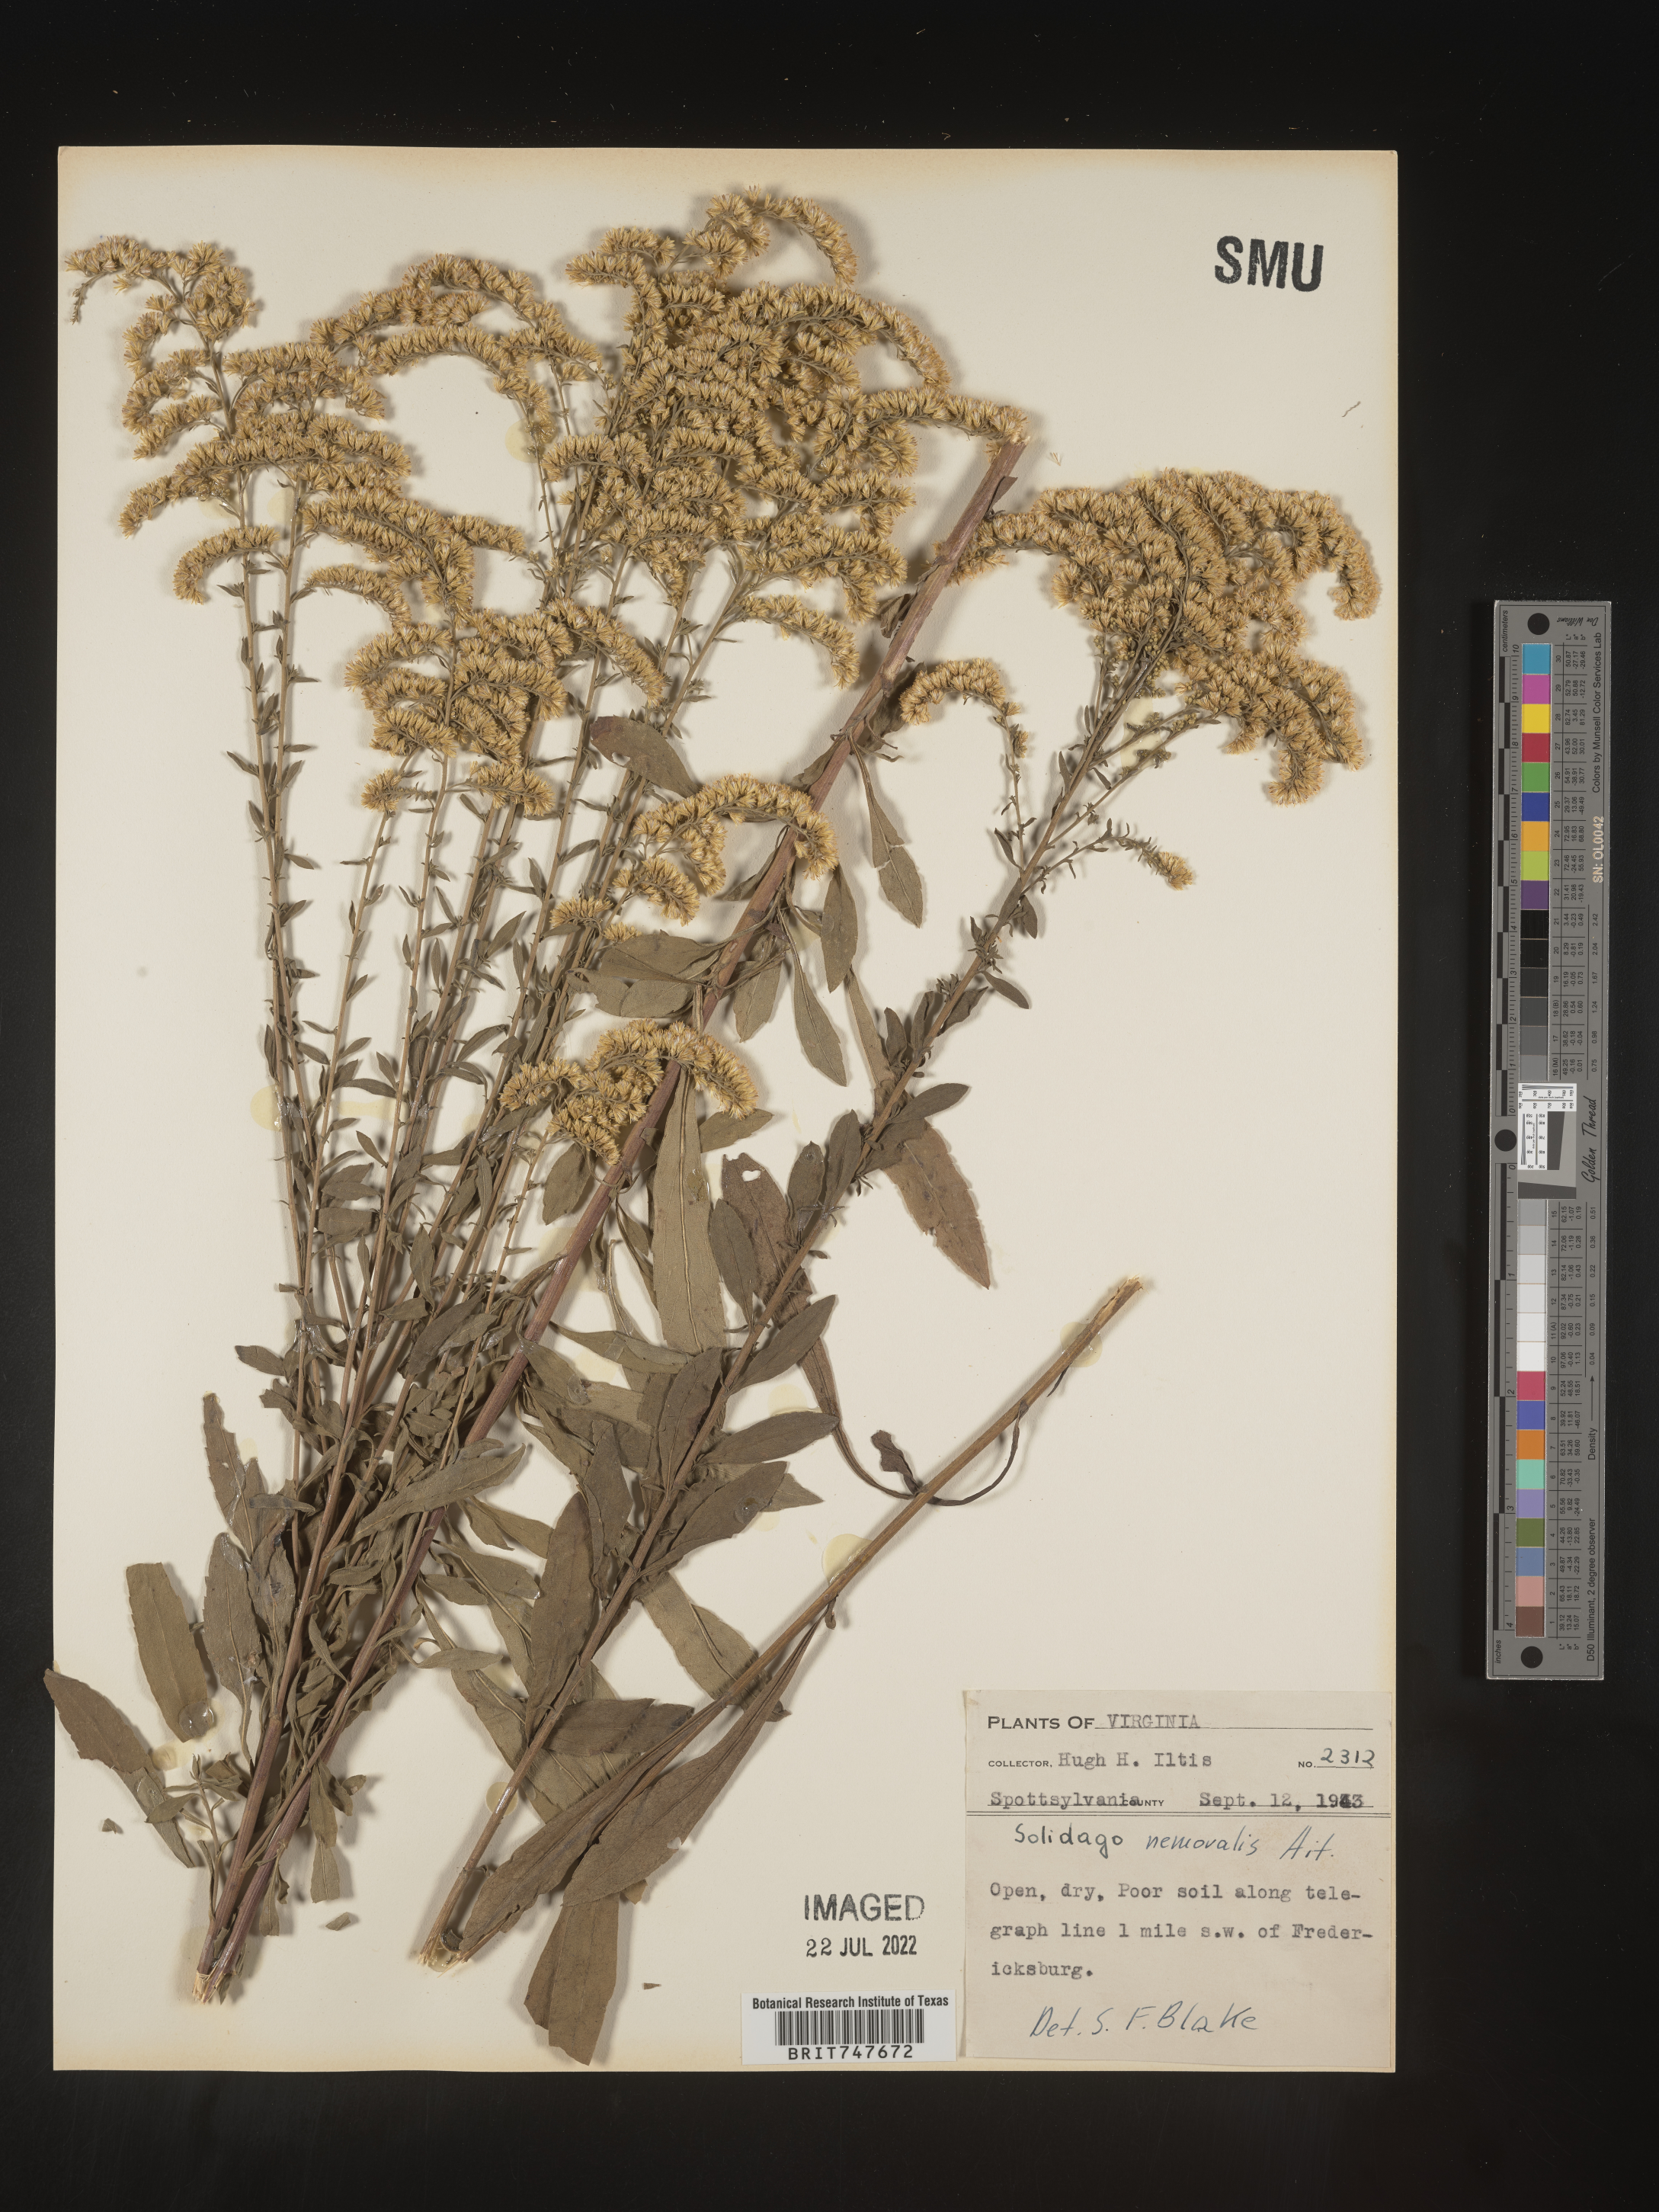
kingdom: Plantae
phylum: Tracheophyta
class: Magnoliopsida
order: Asterales
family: Asteraceae
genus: Solidago
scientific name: Solidago nemoralis
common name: Grey goldenrod
